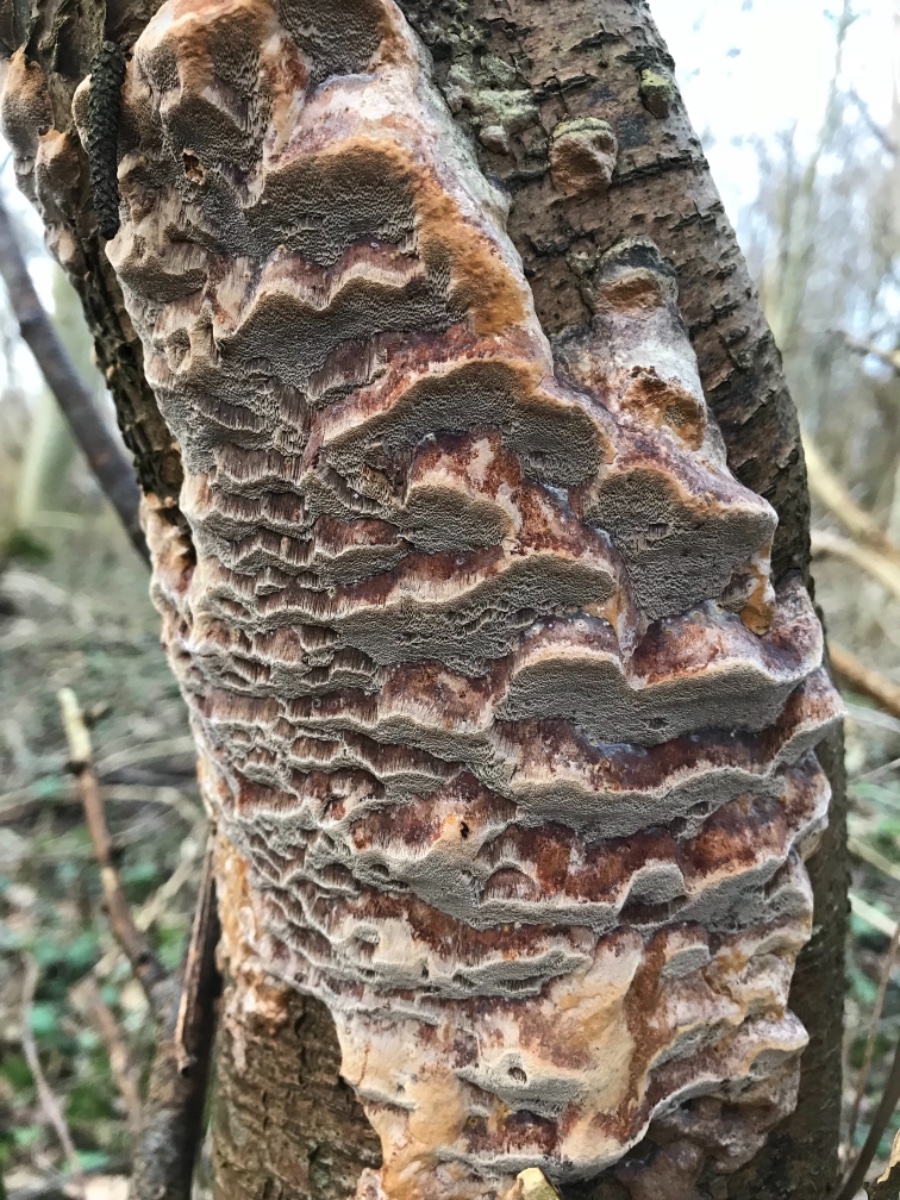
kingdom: Fungi
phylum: Basidiomycota
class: Agaricomycetes
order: Hymenochaetales
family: Hymenochaetaceae
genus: Phellinus
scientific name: Phellinus pomaceus
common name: blomme-ildporesvamp
